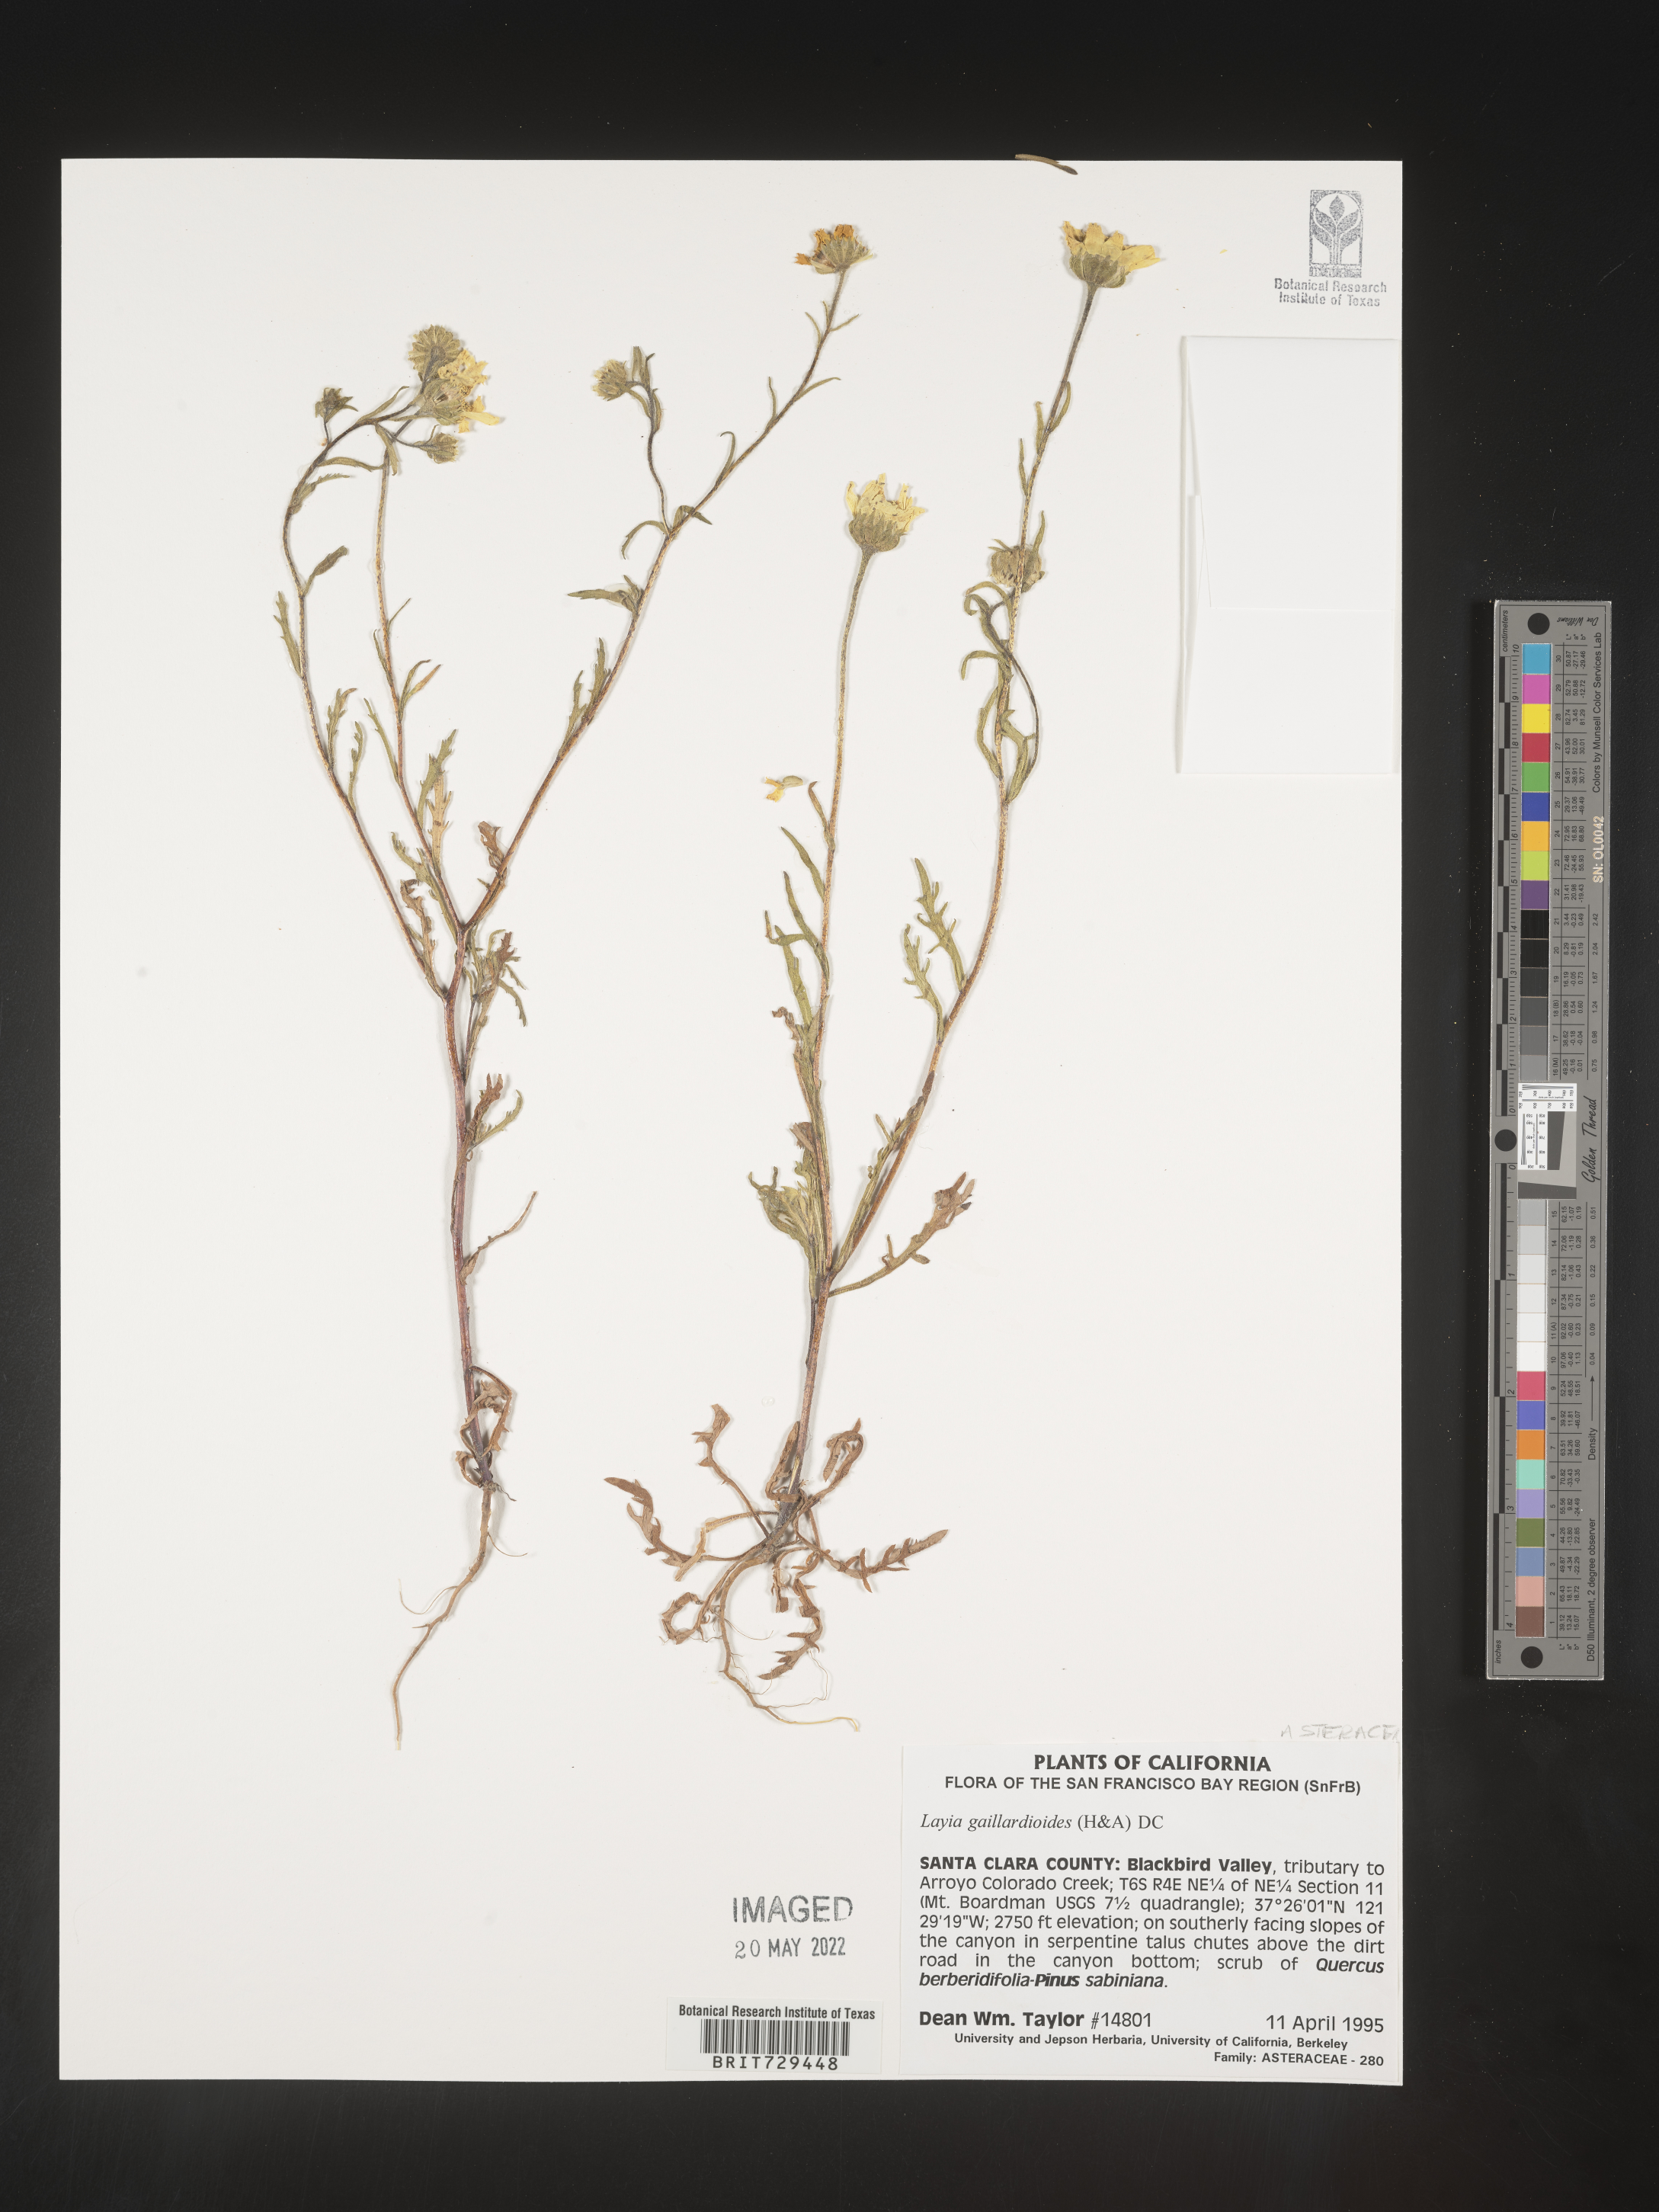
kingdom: Plantae
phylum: Tracheophyta
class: Magnoliopsida
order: Asterales
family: Asteraceae
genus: Layia
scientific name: Layia
